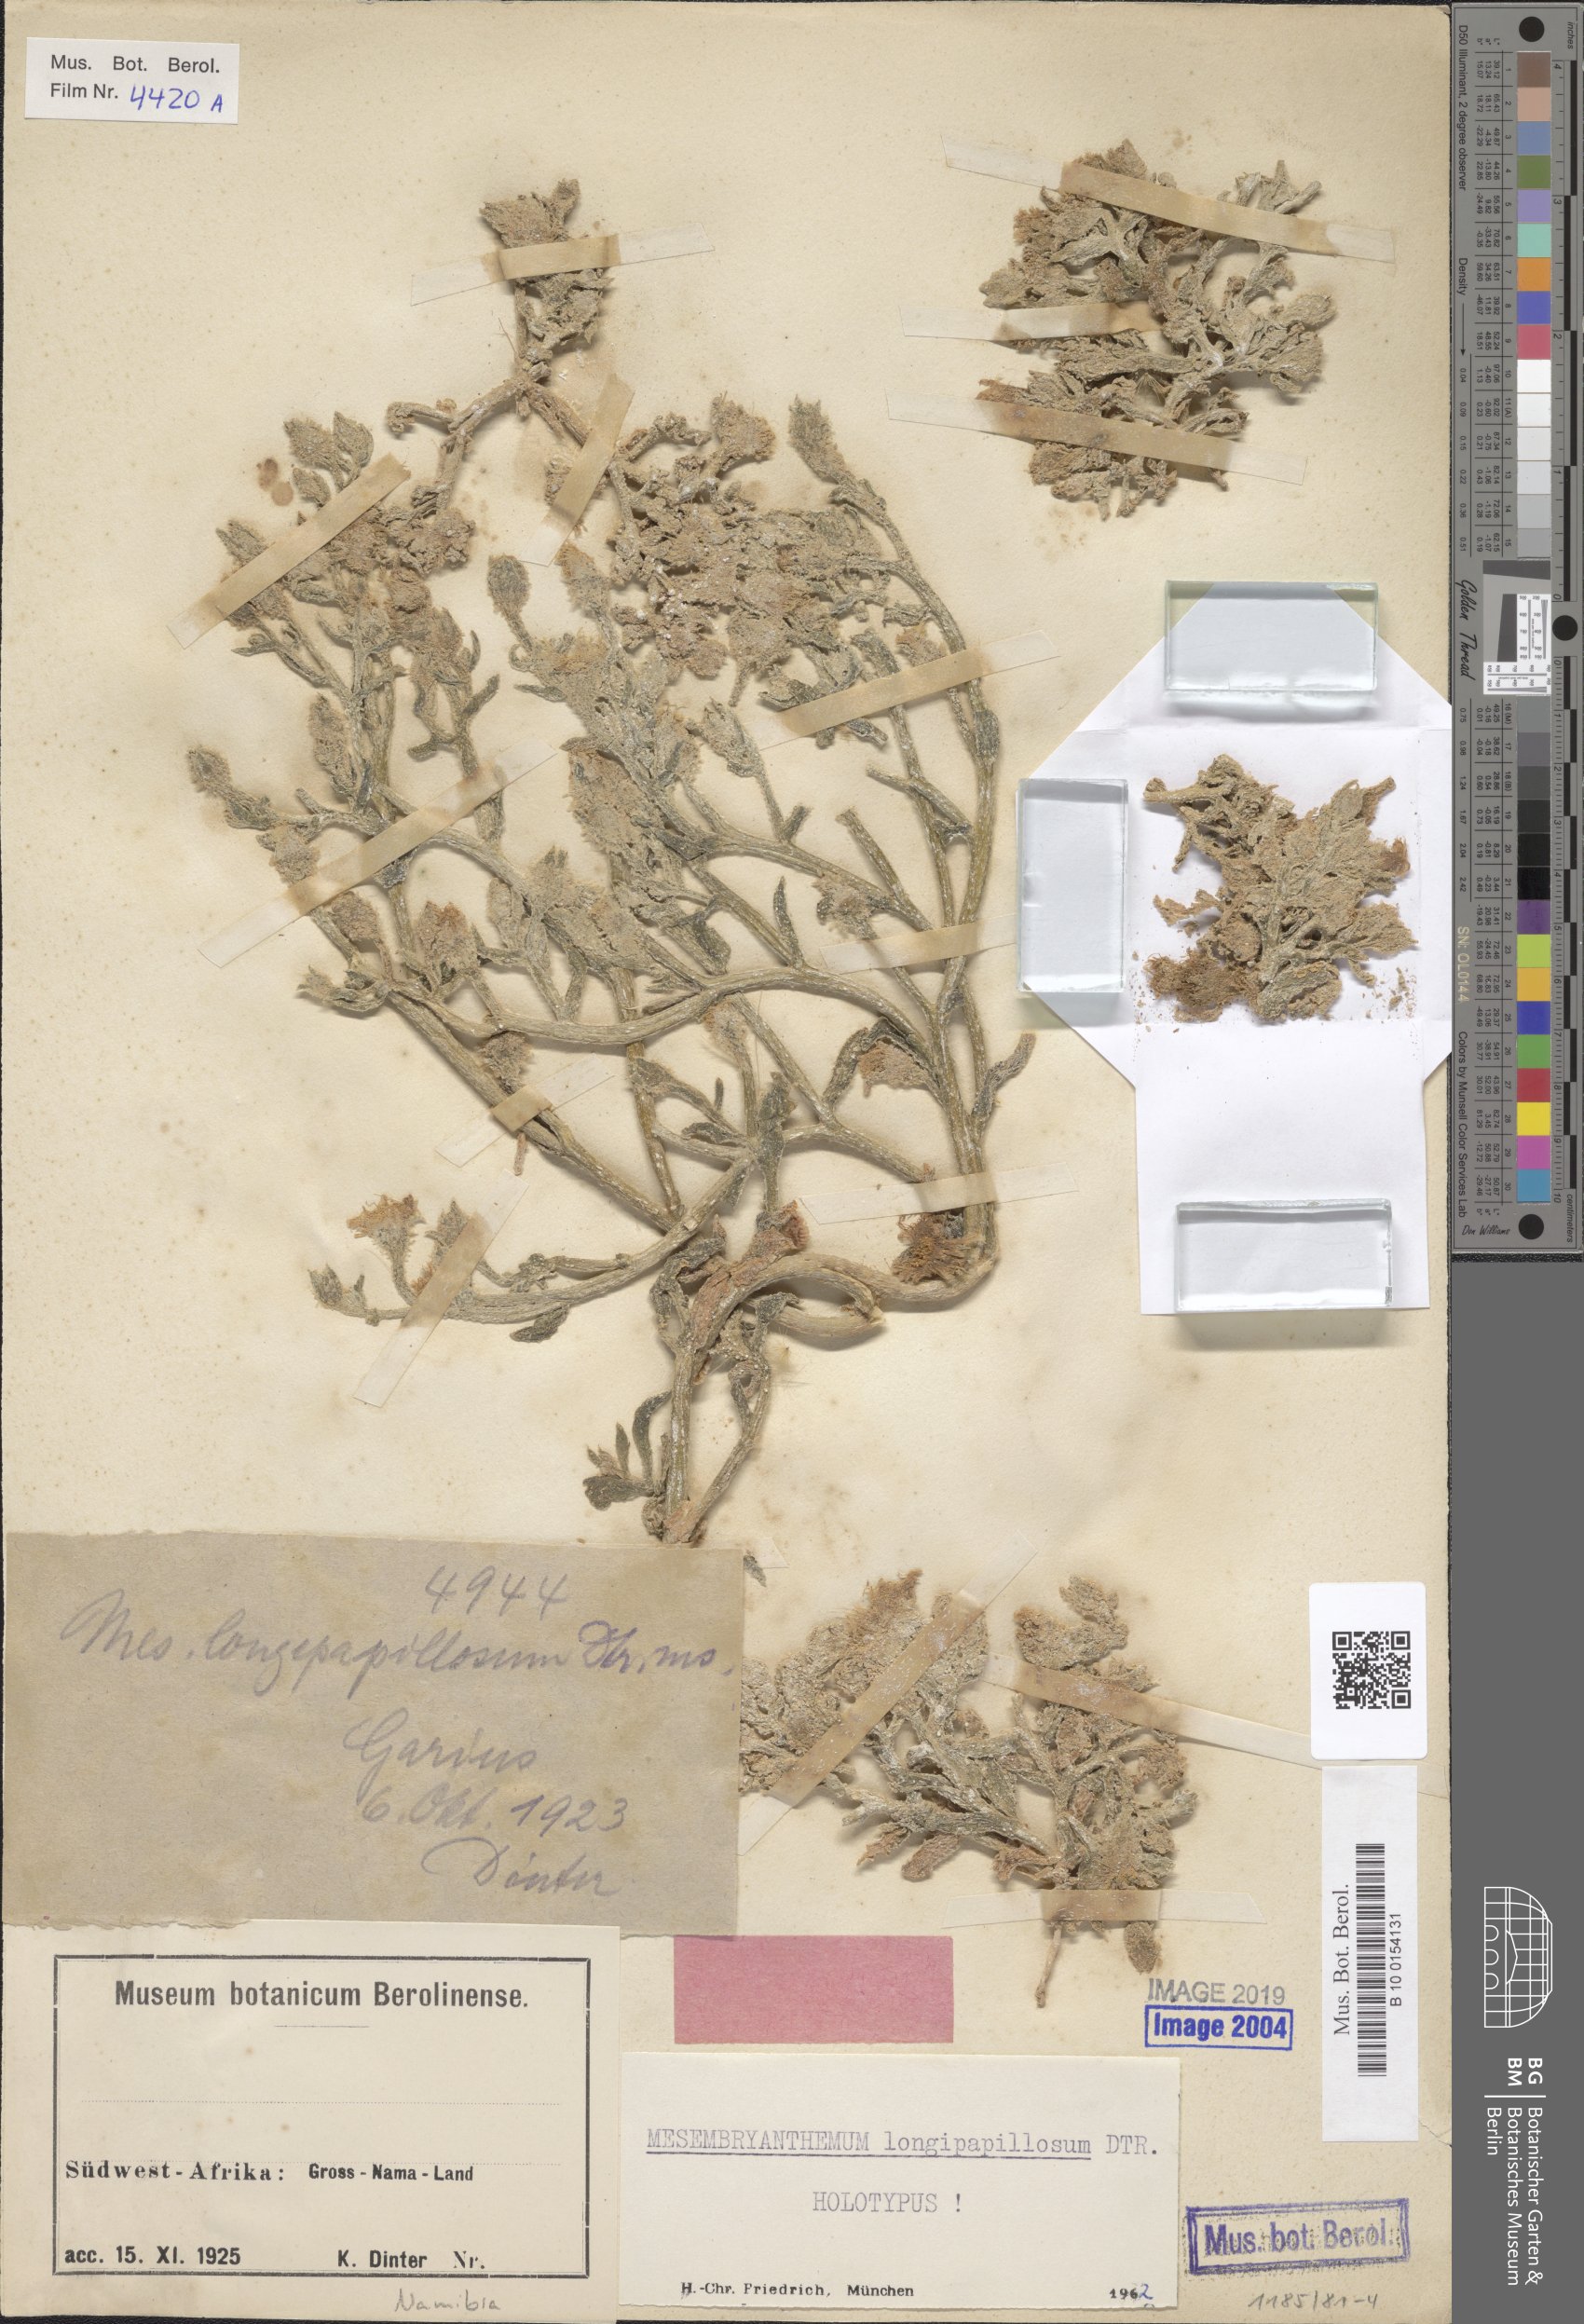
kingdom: Plantae
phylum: Tracheophyta
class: Magnoliopsida
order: Caryophyllales
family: Aizoaceae
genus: Mesembryanthemum
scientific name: Mesembryanthemum inachabense
